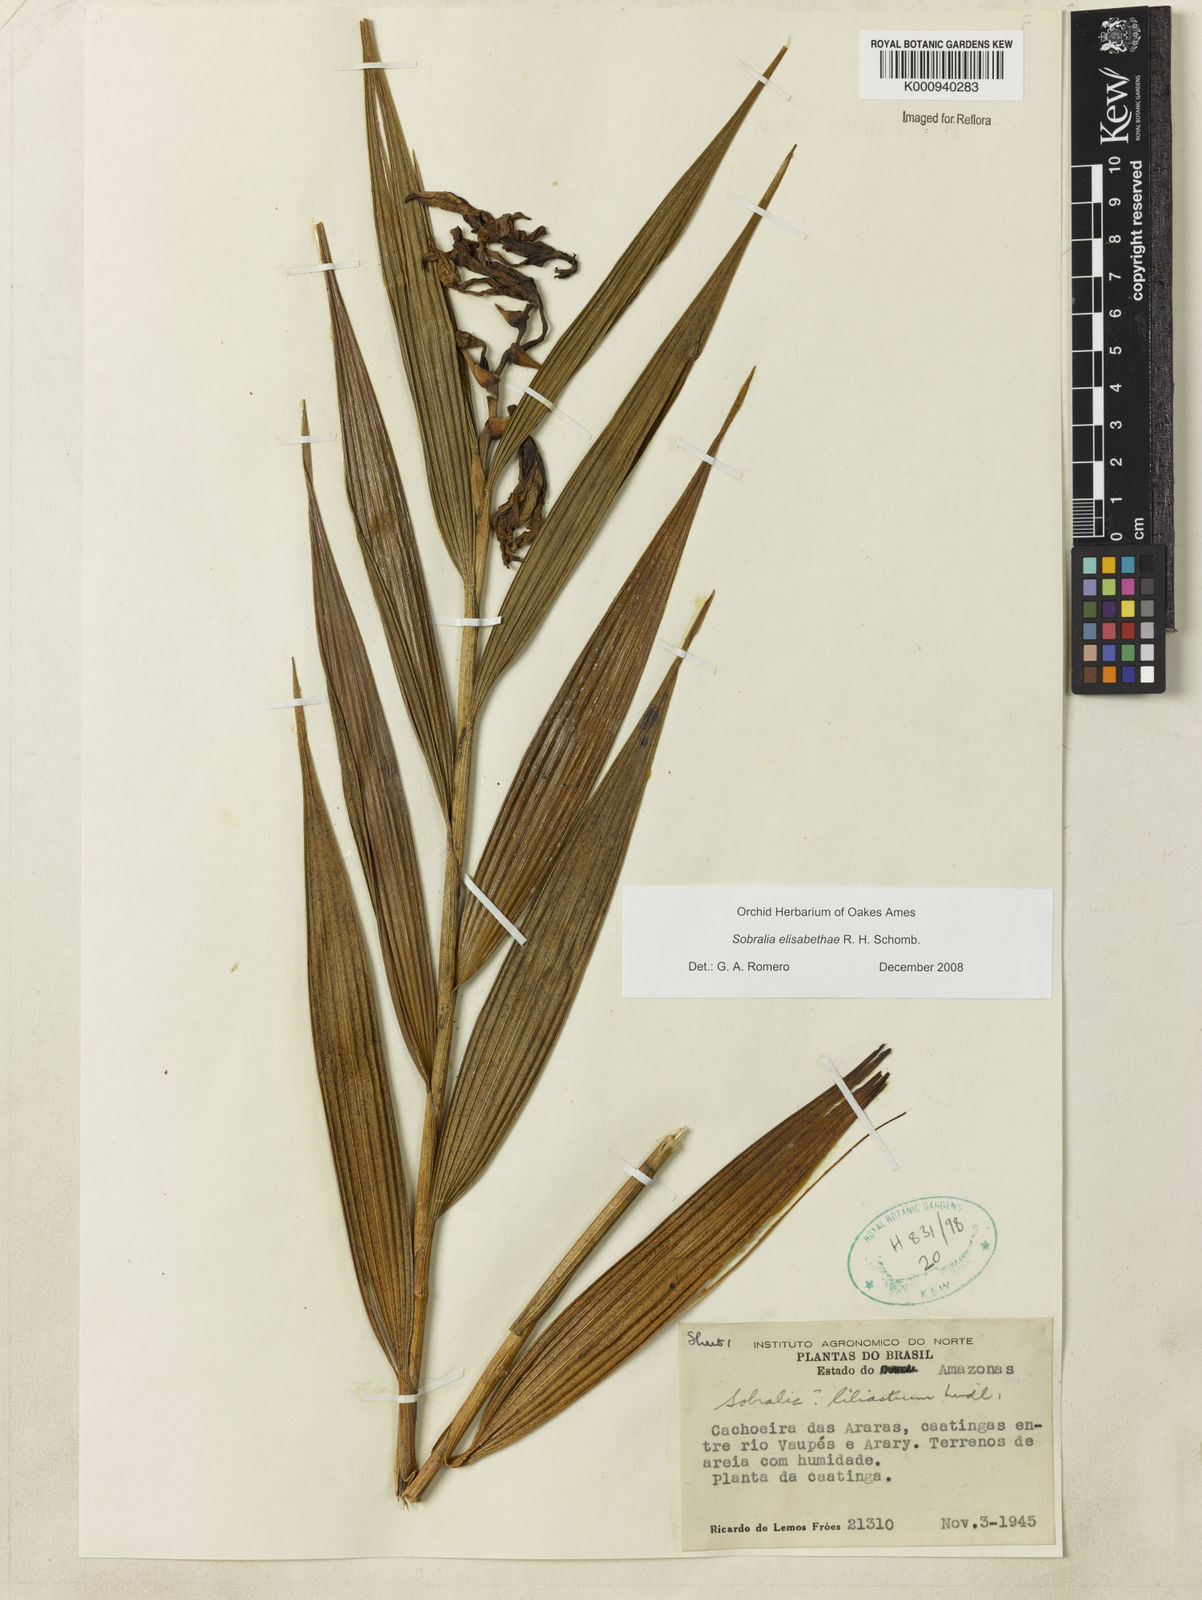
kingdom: Plantae
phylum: Tracheophyta
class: Liliopsida
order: Asparagales
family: Orchidaceae
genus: Sobralia
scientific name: Sobralia elisabethae
